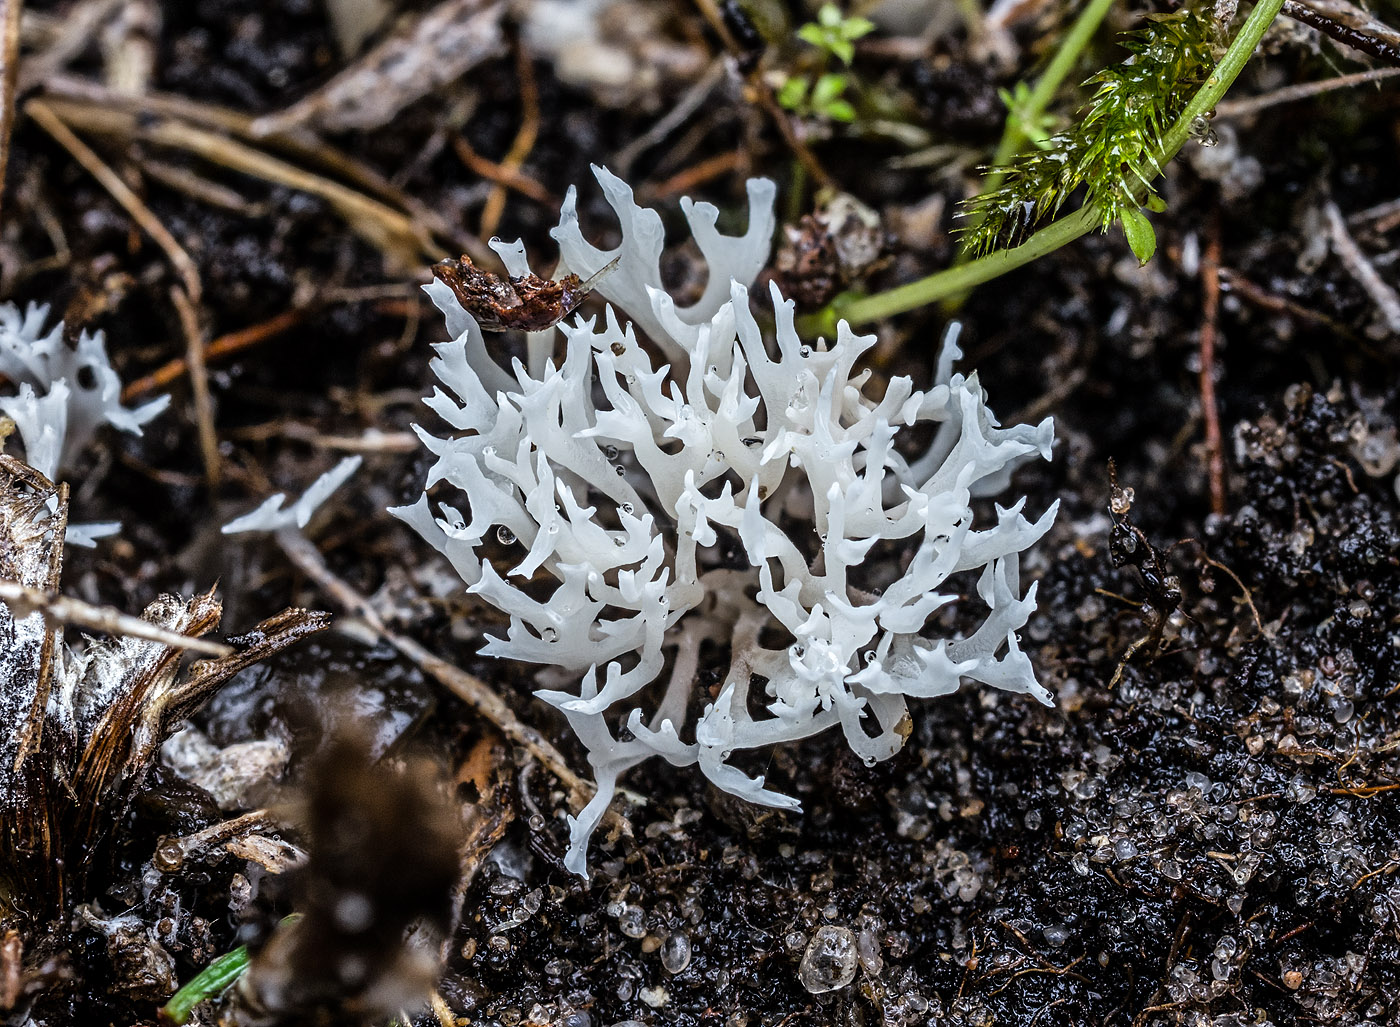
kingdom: Fungi
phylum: Basidiomycota
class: Agaricomycetes
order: Agaricales
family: Clavariaceae
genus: Ramariopsis
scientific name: Ramariopsis
